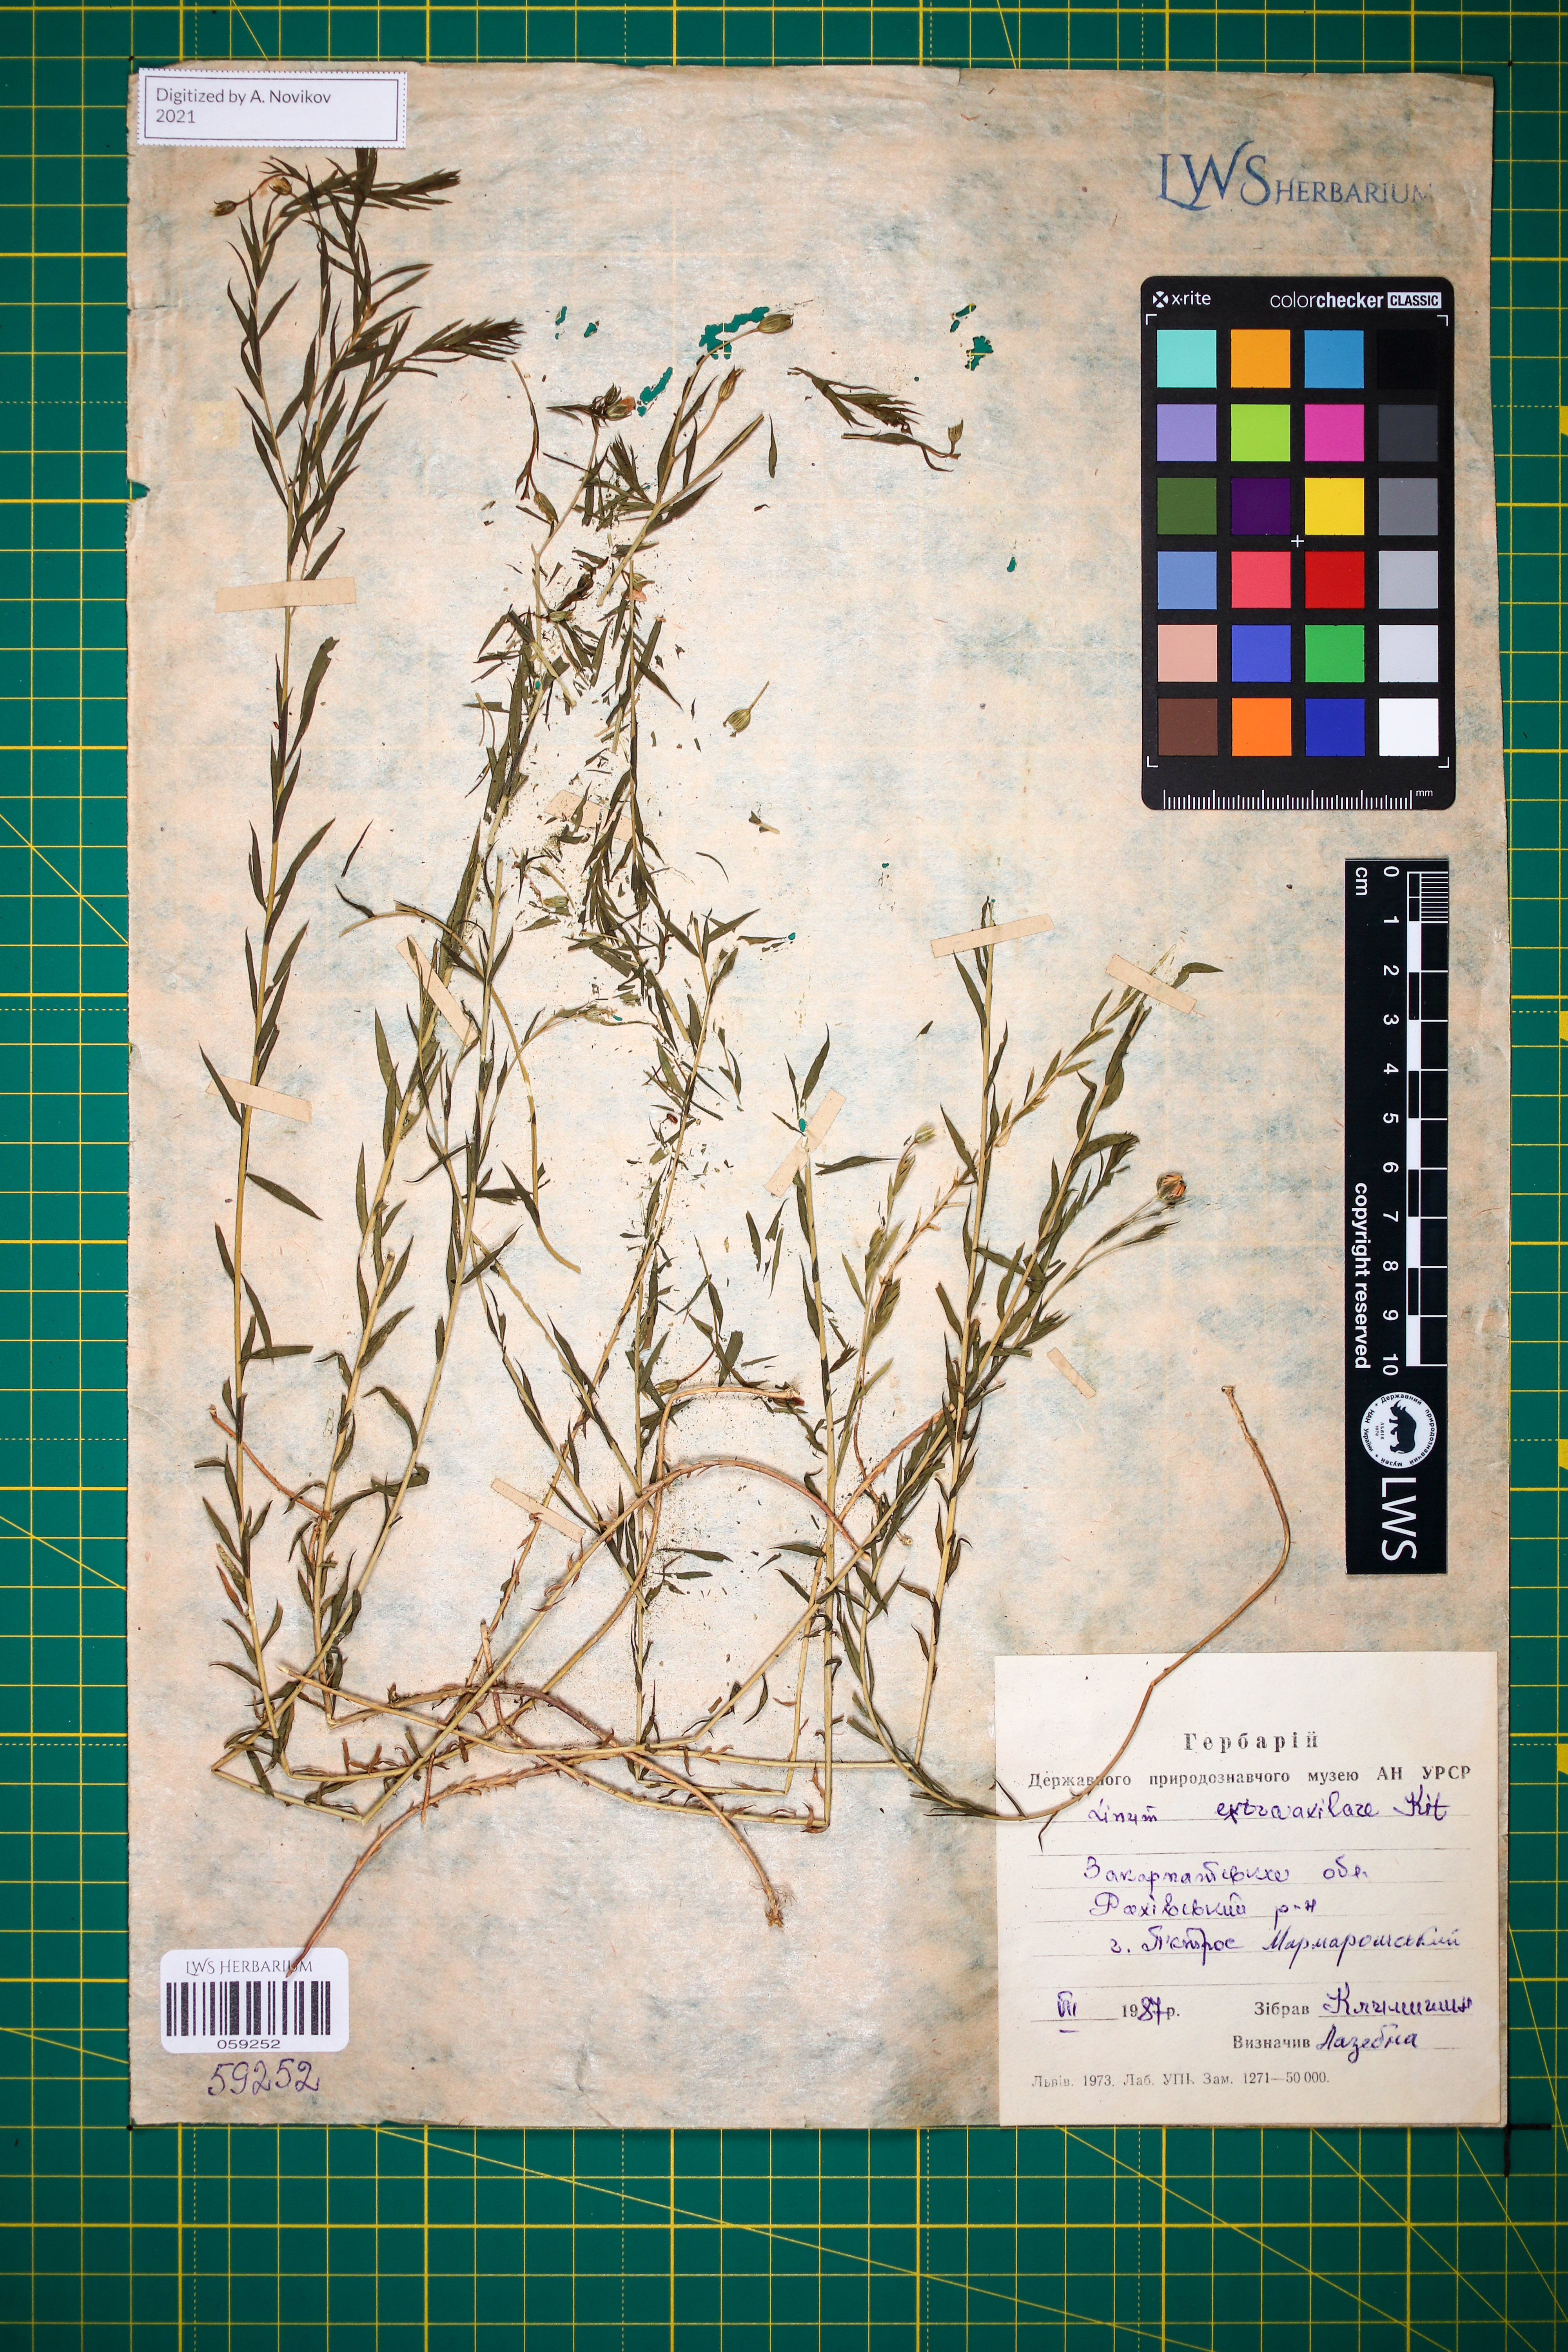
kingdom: Plantae
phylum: Tracheophyta
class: Magnoliopsida
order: Malpighiales
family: Linaceae
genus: Linum
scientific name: Linum perenne
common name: Blue flax
